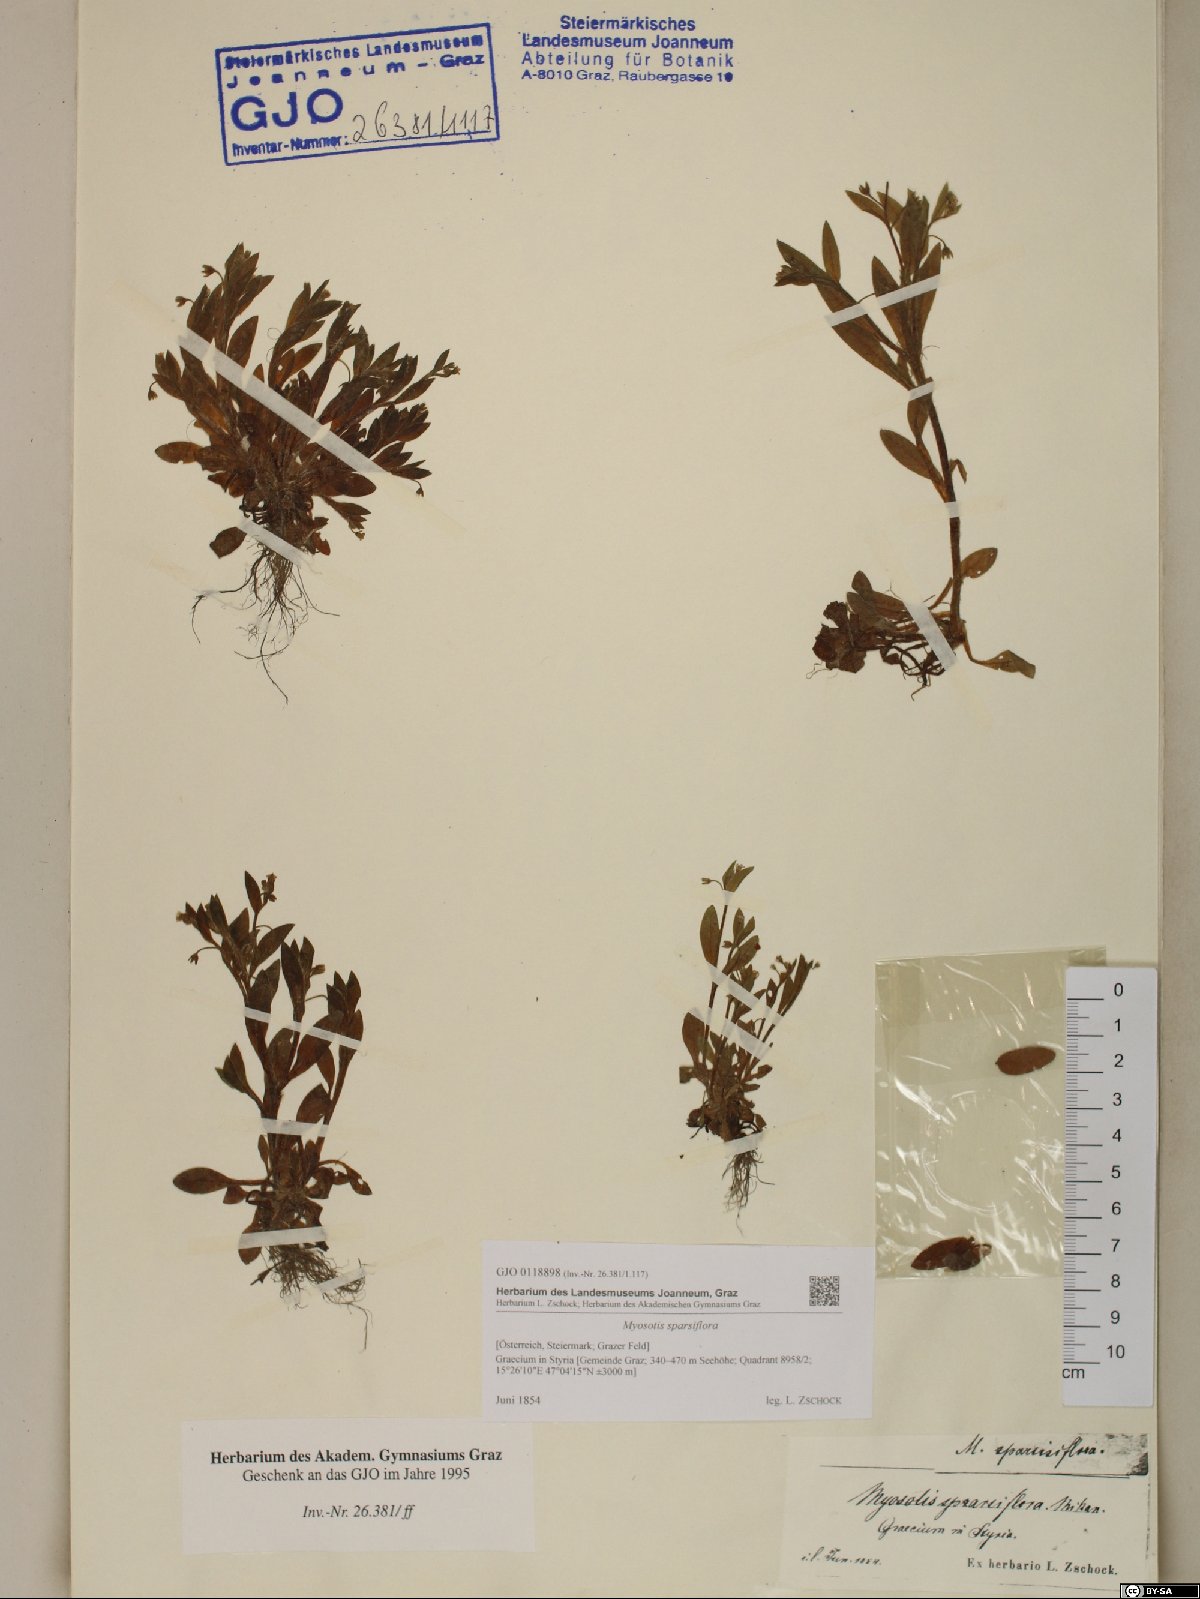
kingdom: Plantae
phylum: Tracheophyta
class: Magnoliopsida
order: Boraginales
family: Boraginaceae
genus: Myosotis
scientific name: Myosotis sparsiflora
